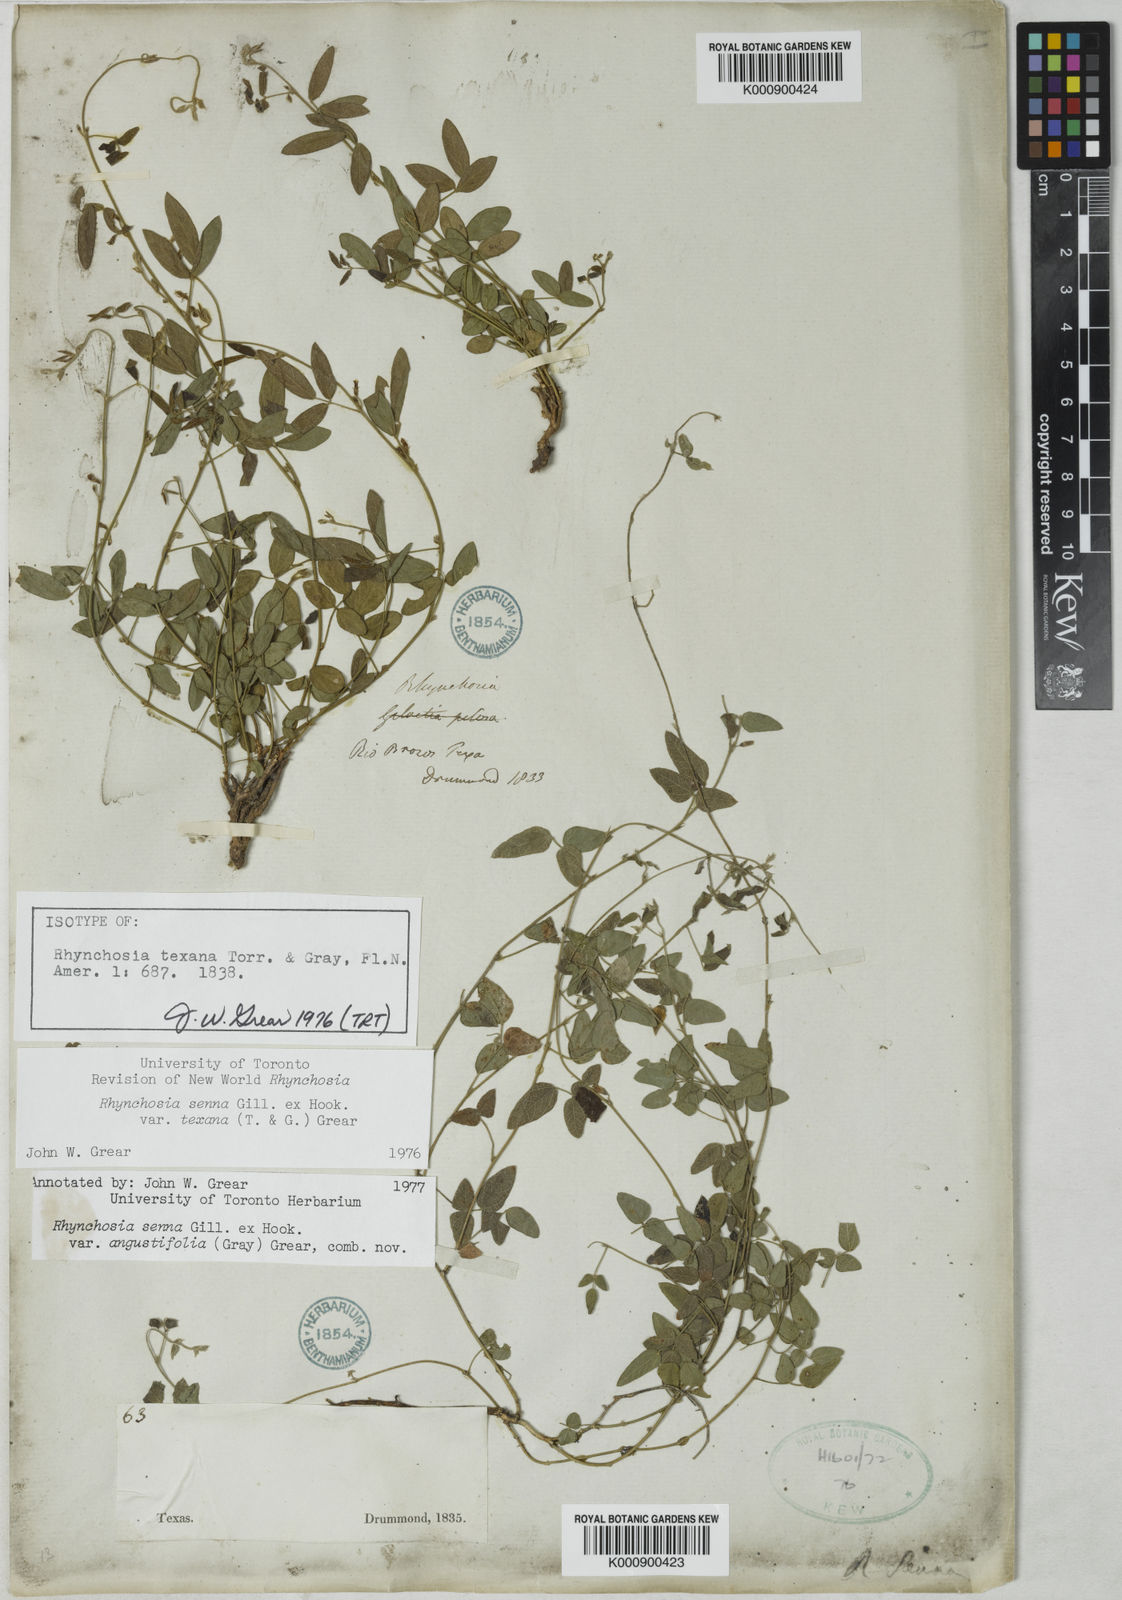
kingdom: Plantae
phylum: Tracheophyta
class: Magnoliopsida
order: Fabales
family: Fabaceae
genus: Rhynchosia
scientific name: Rhynchosia senna
